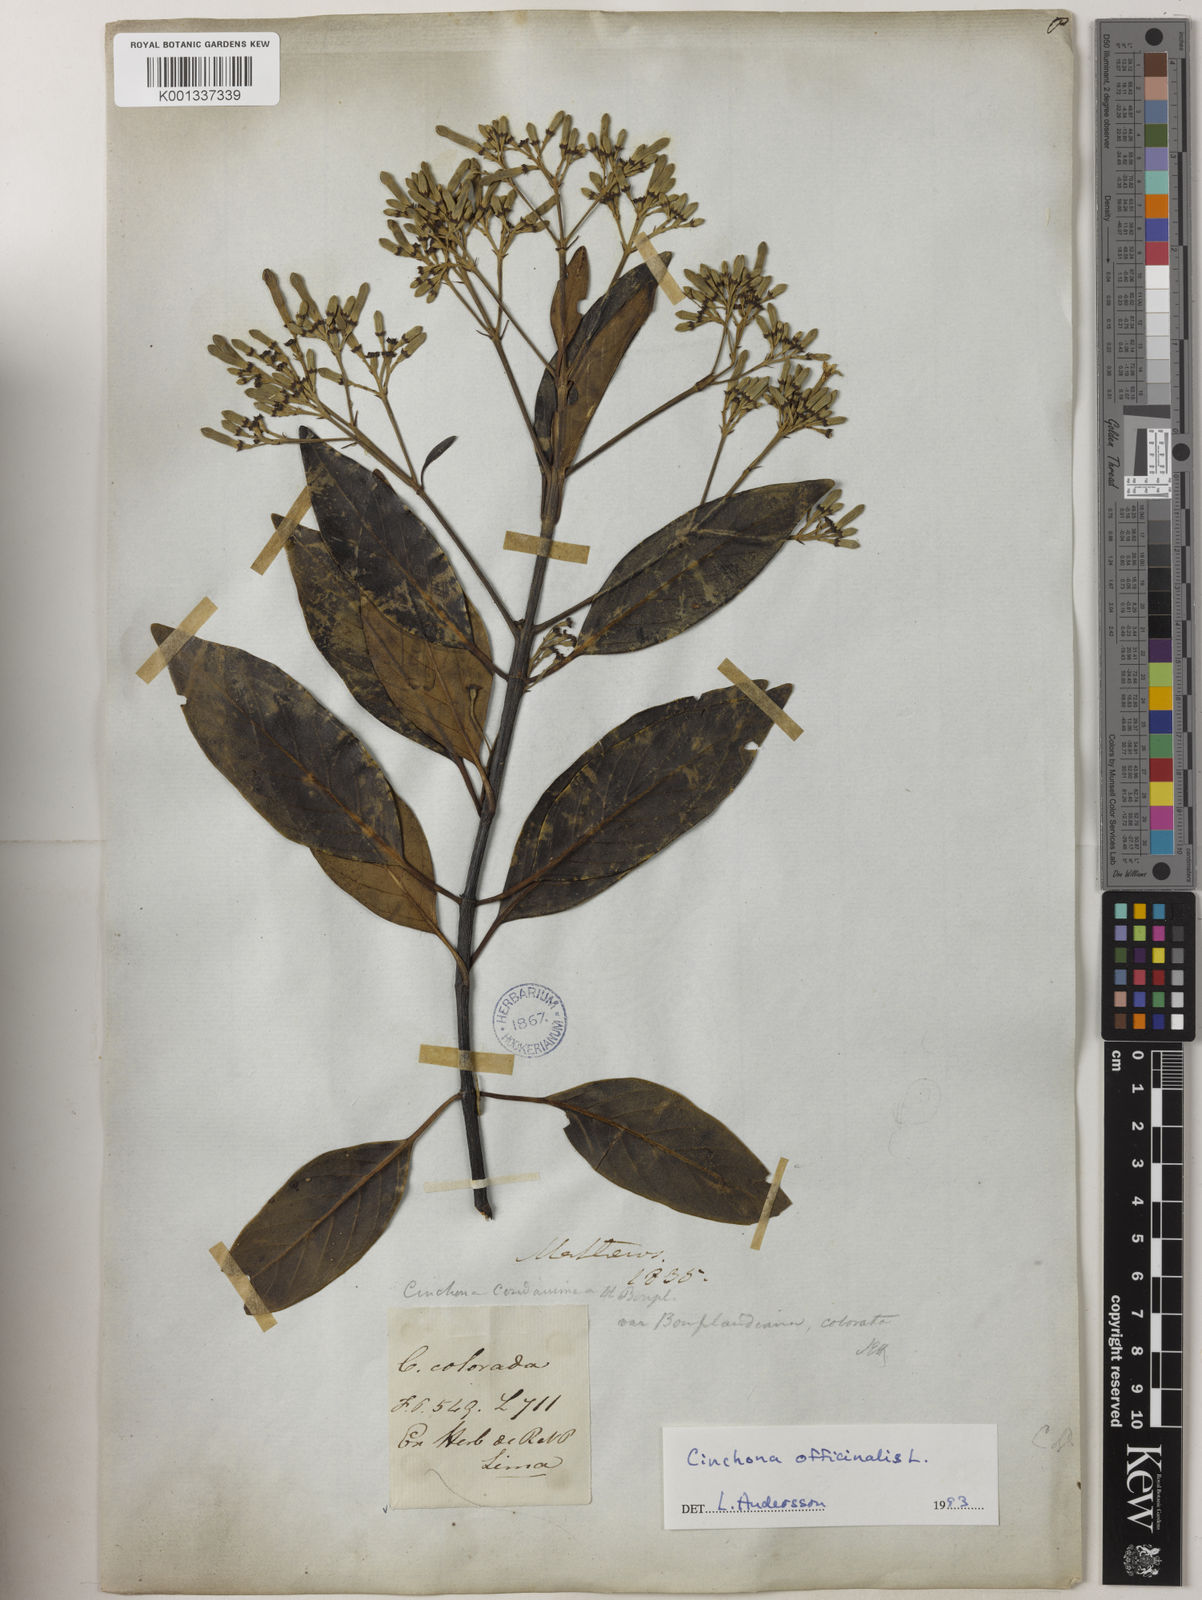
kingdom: Plantae
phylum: Tracheophyta
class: Magnoliopsida
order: Gentianales
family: Rubiaceae
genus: Cinchona
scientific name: Cinchona officinalis
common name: Lojabark
